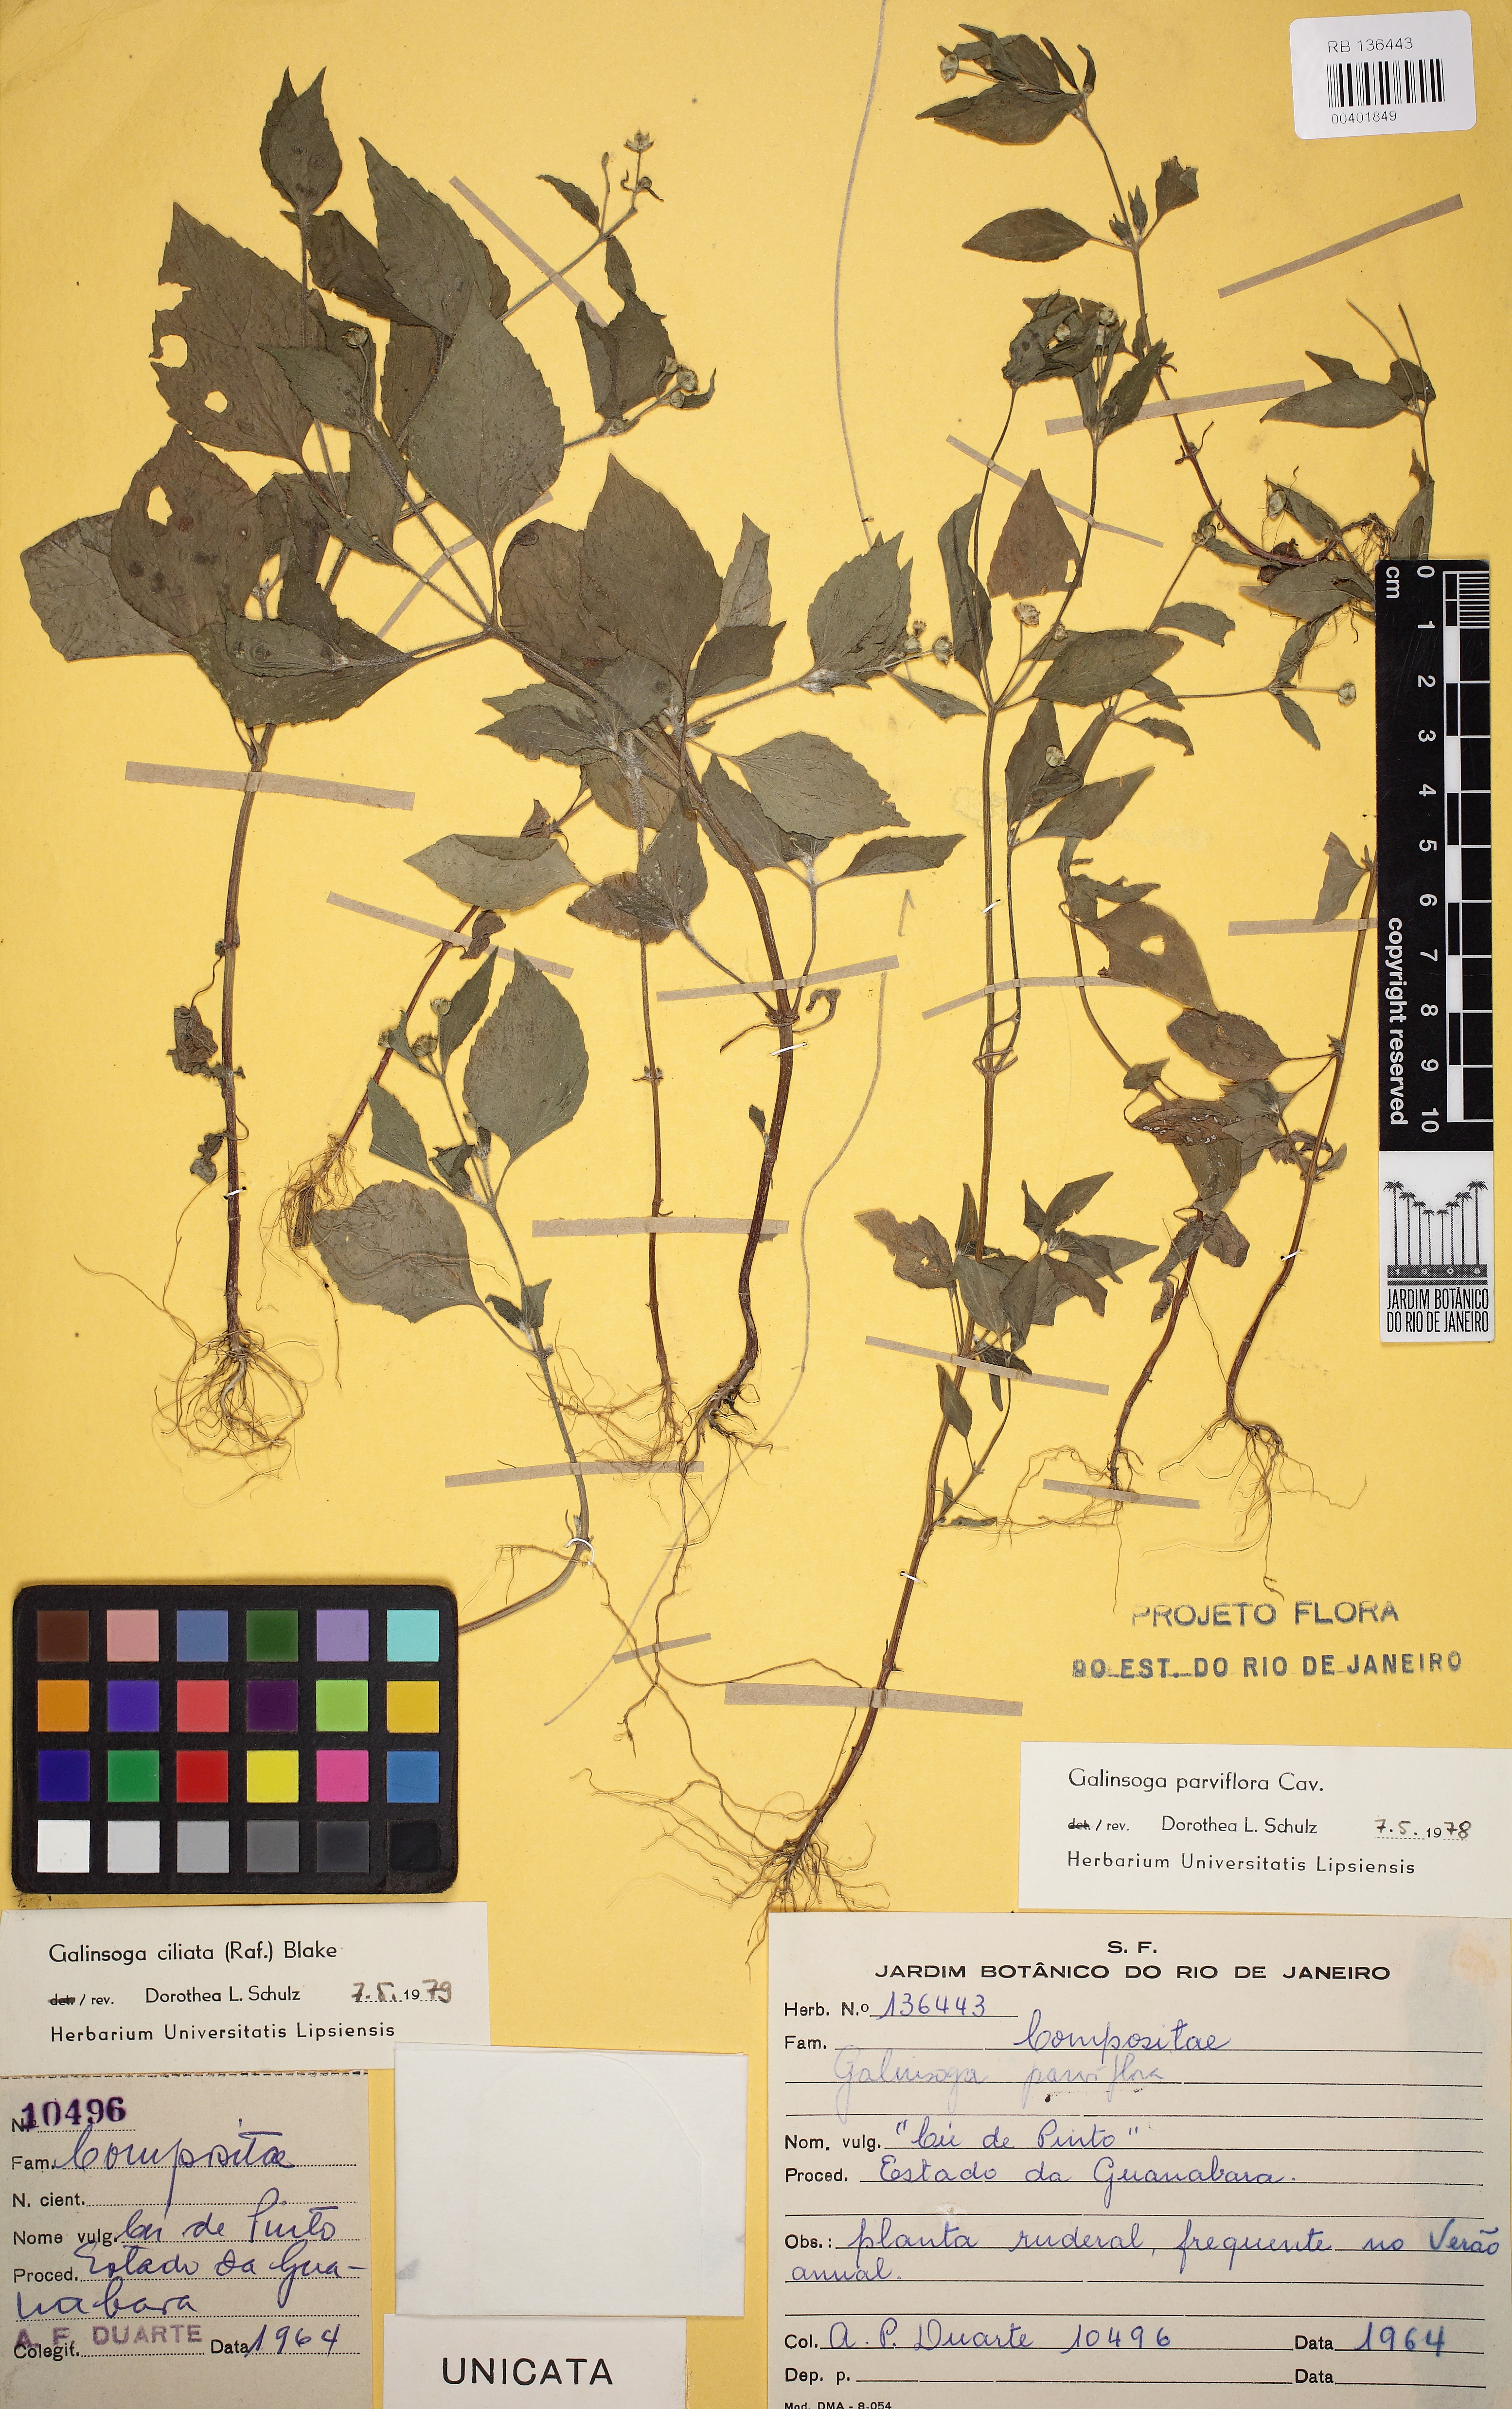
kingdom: Plantae
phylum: Tracheophyta
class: Magnoliopsida
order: Asterales
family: Asteraceae
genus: Galinsoga
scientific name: Galinsoga quadriradiata
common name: Shaggy soldier
